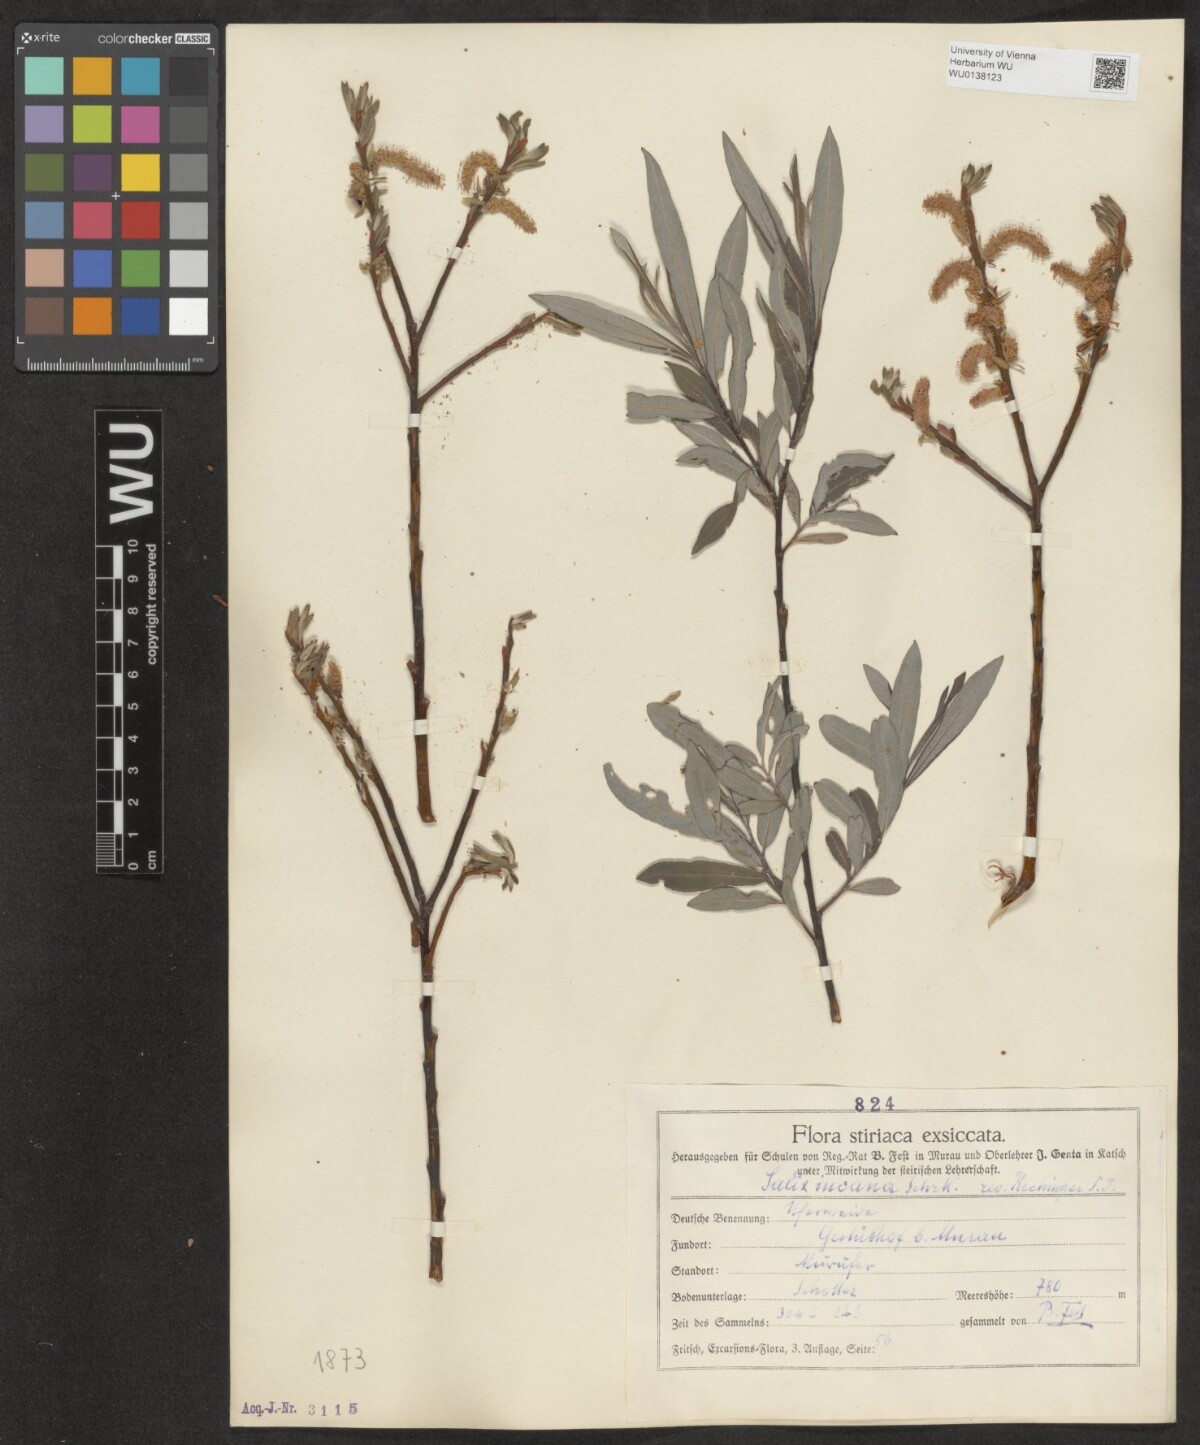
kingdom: Plantae
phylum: Tracheophyta
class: Magnoliopsida
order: Malpighiales
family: Salicaceae
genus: Salix
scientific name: Salix eleagnos
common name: Elaeagnus willow
